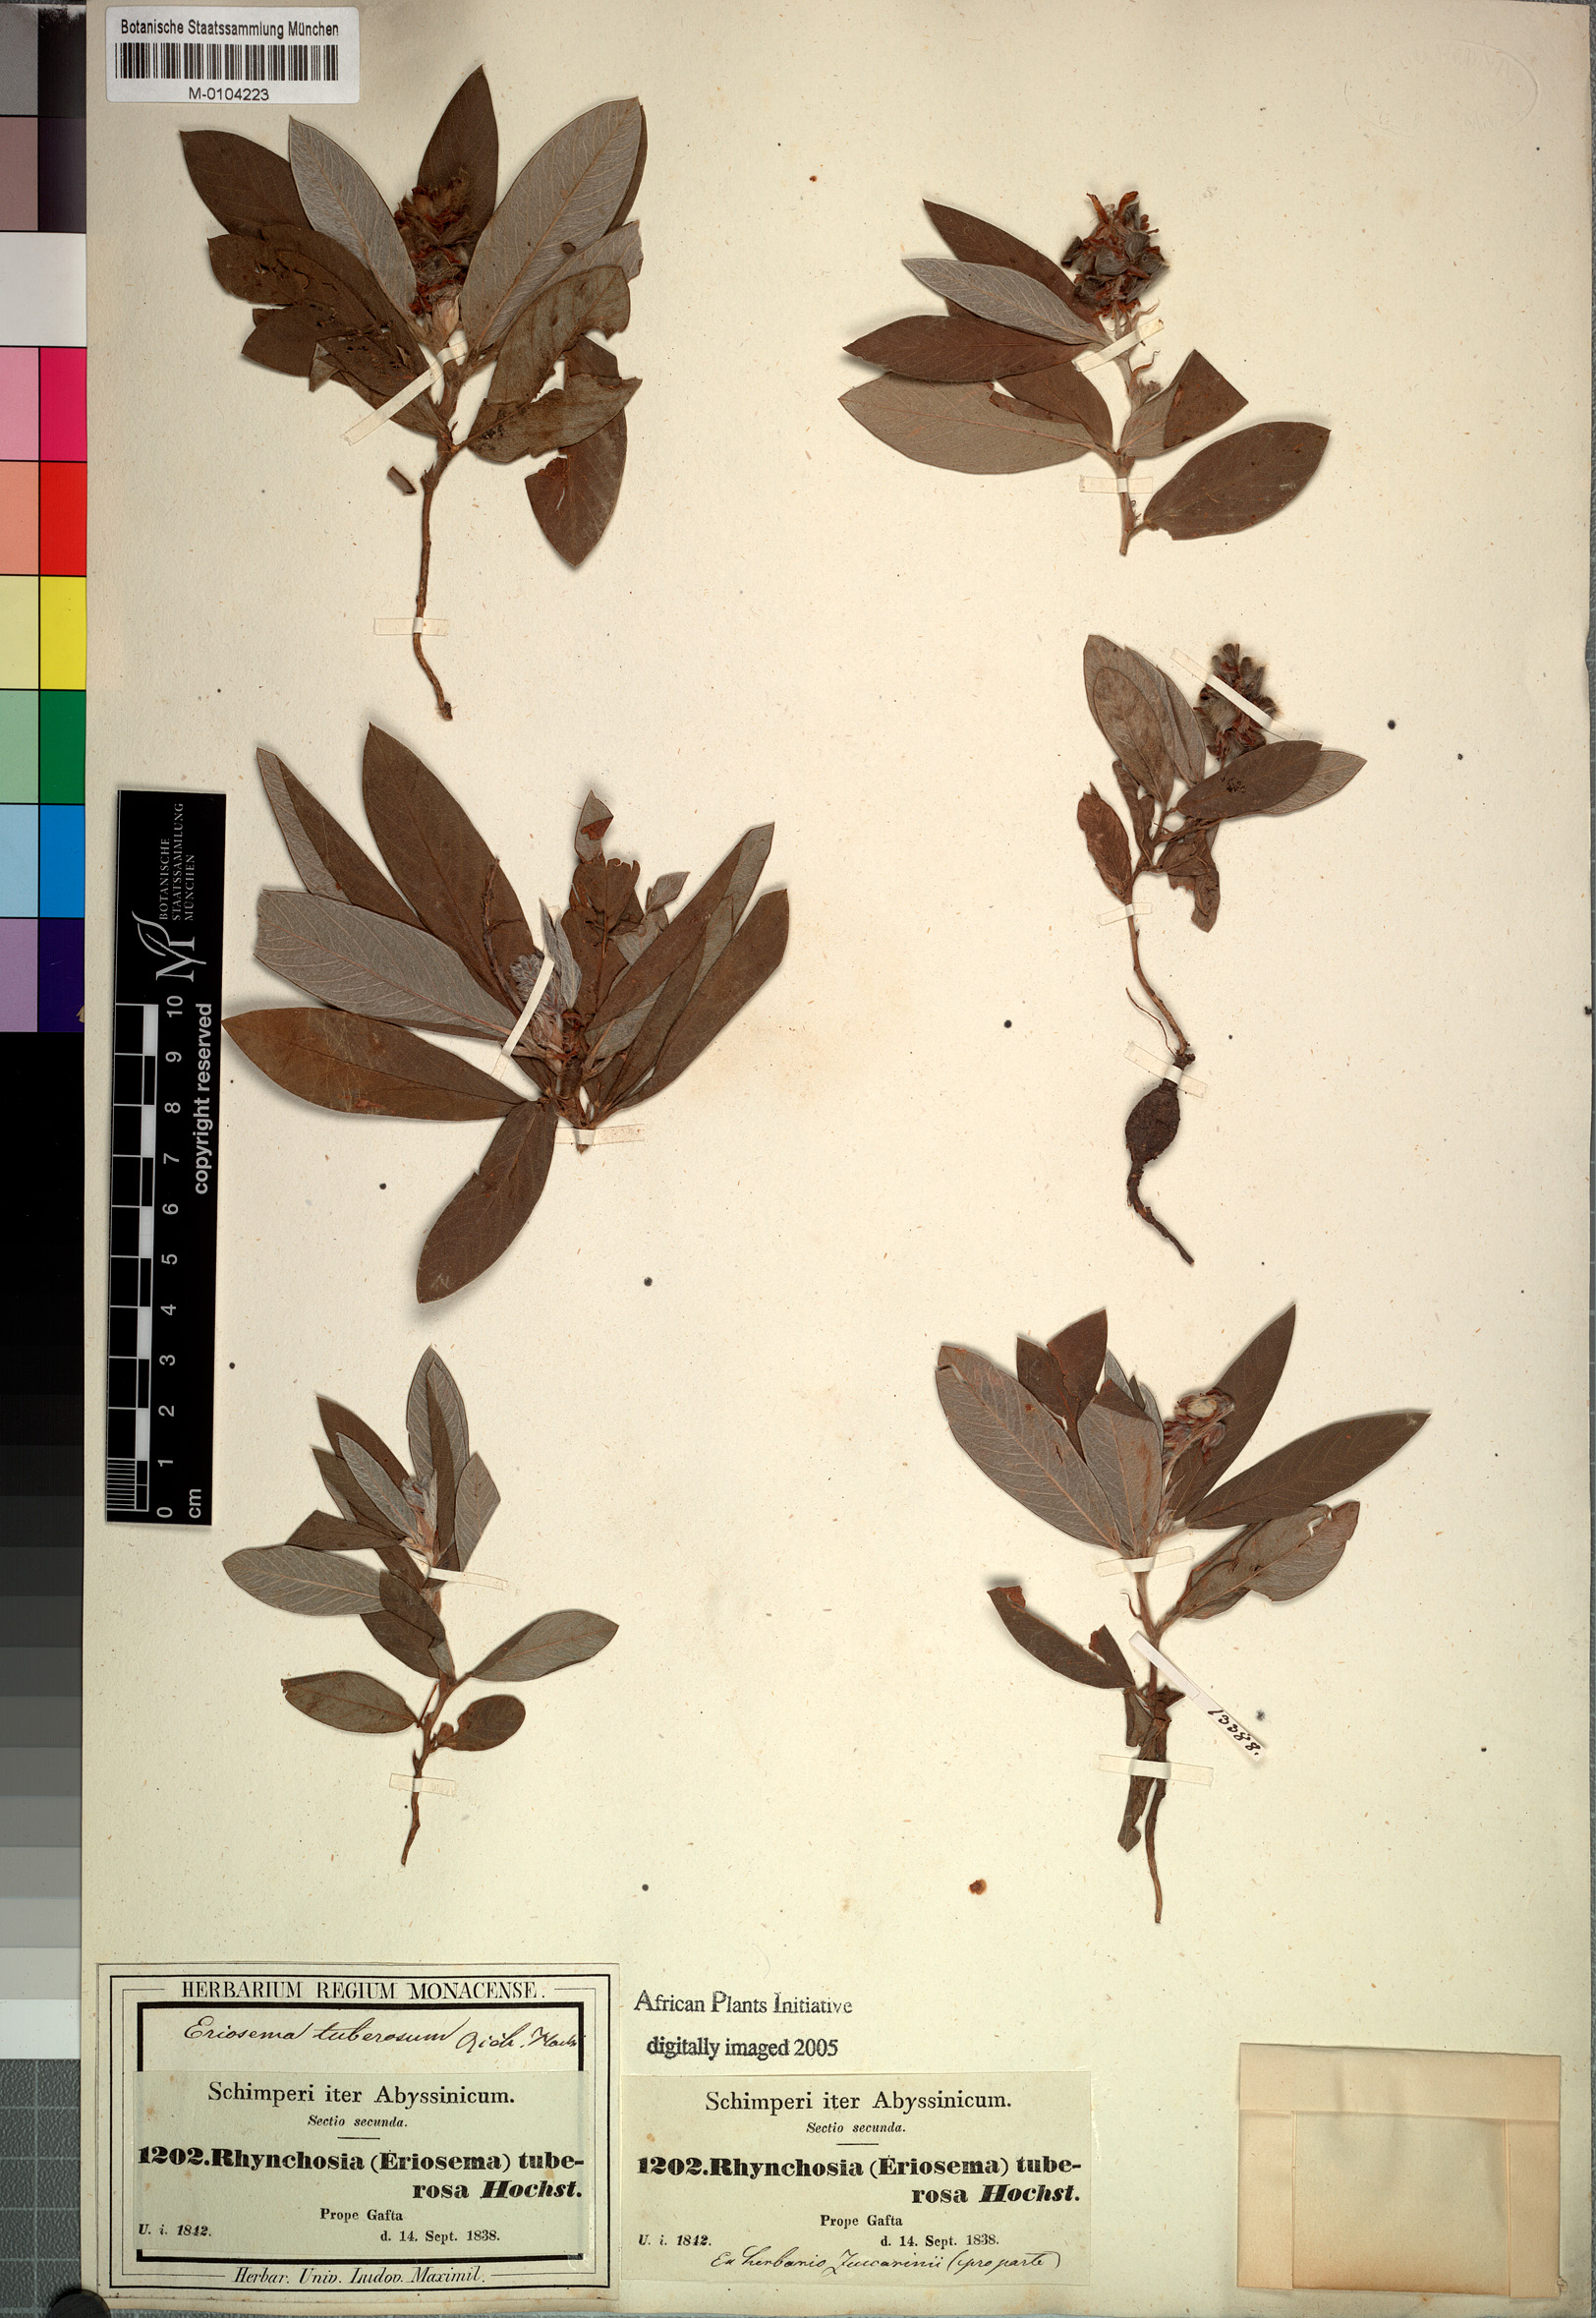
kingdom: Plantae
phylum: Tracheophyta
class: Magnoliopsida
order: Fabales
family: Fabaceae
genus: Eriosema
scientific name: Eriosema tuberosum
